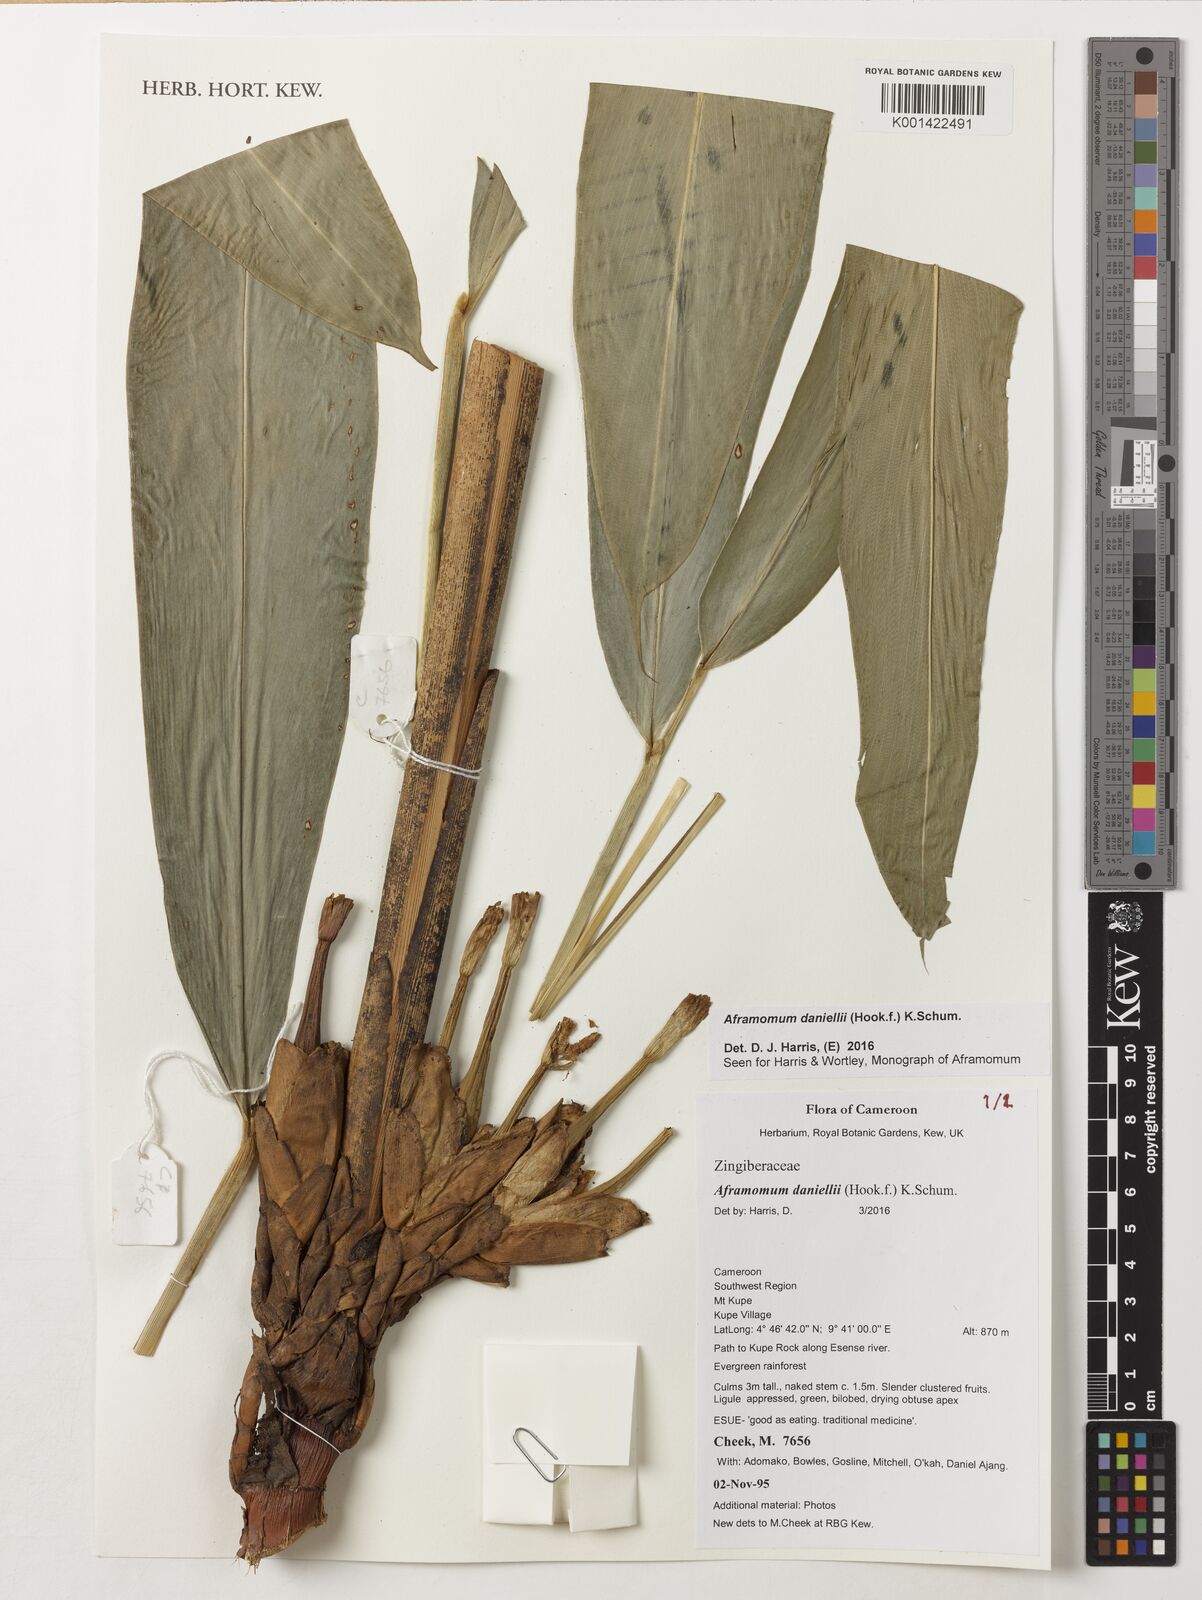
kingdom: Plantae
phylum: Tracheophyta
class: Liliopsida
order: Zingiberales
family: Zingiberaceae
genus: Aframomum
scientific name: Aframomum daniellii
